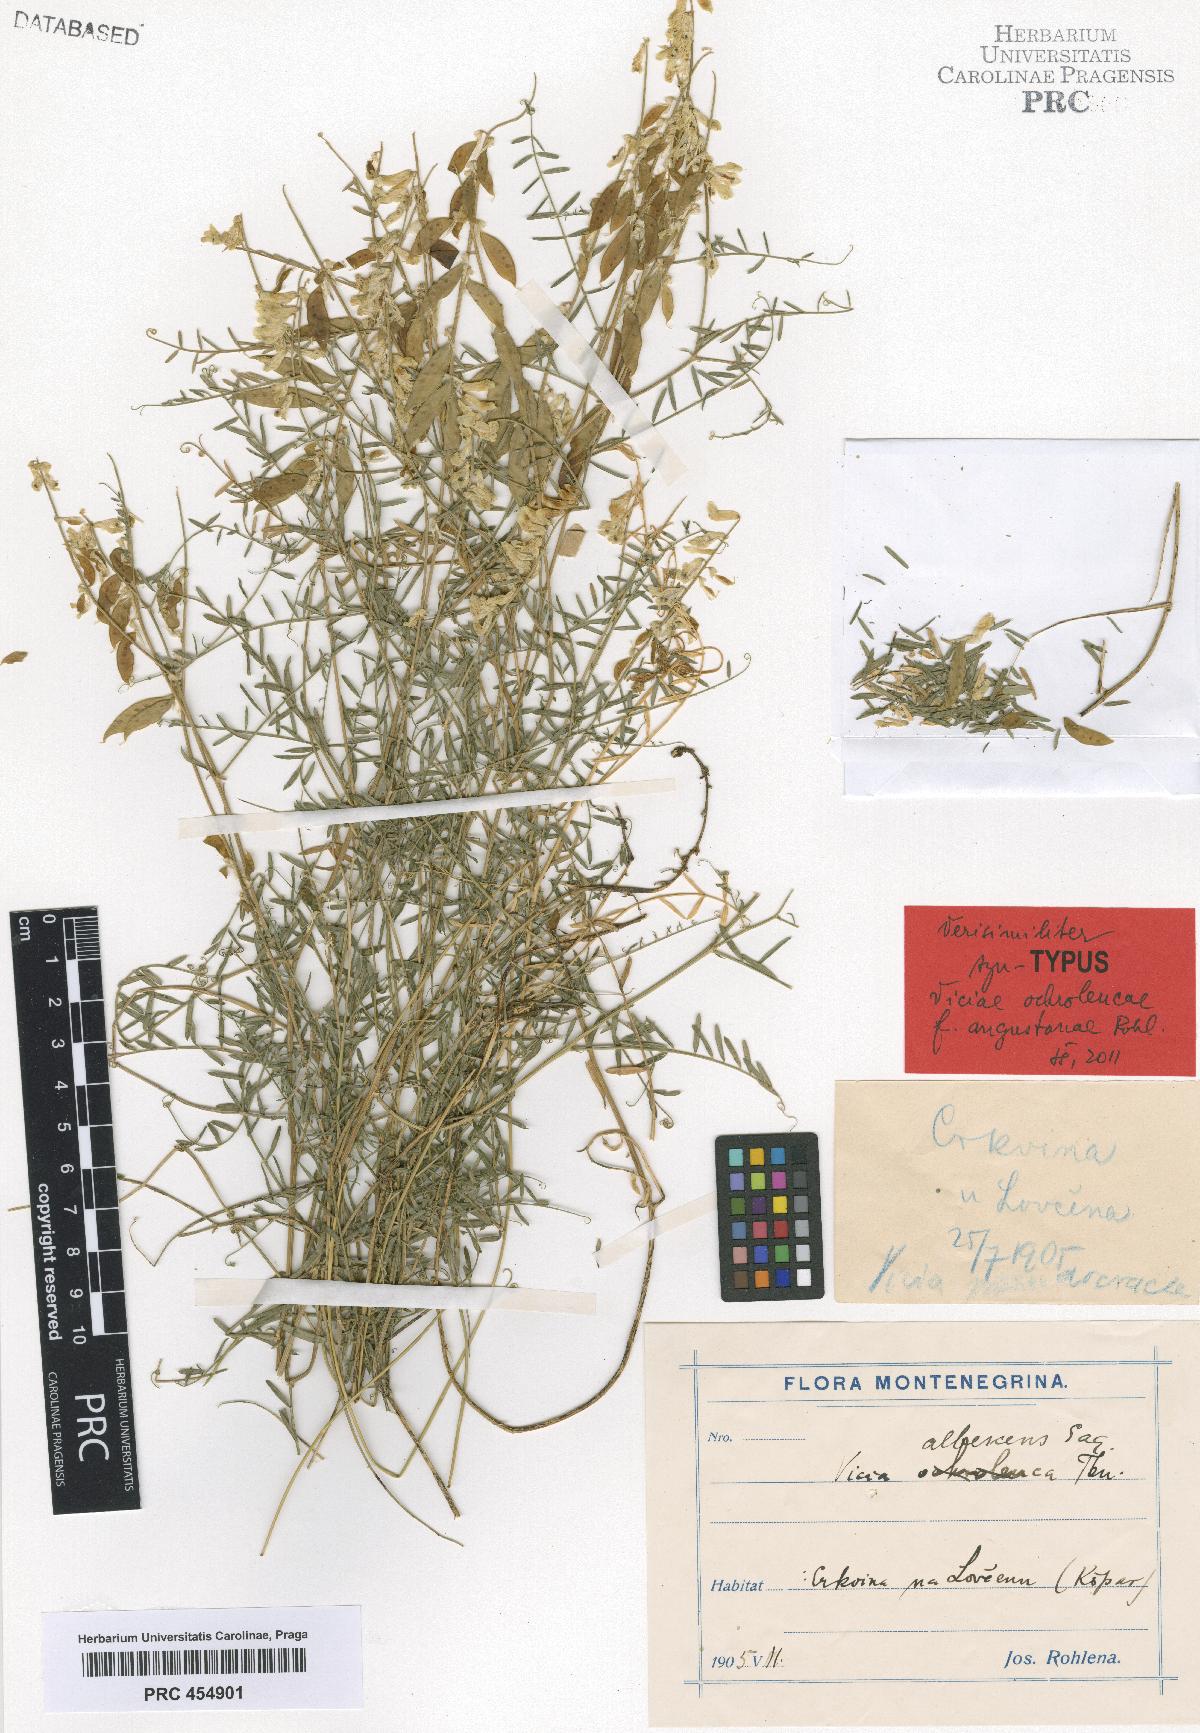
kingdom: Plantae
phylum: Tracheophyta
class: Magnoliopsida
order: Fabales
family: Fabaceae
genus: Vicia
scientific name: Vicia ochroleuca
